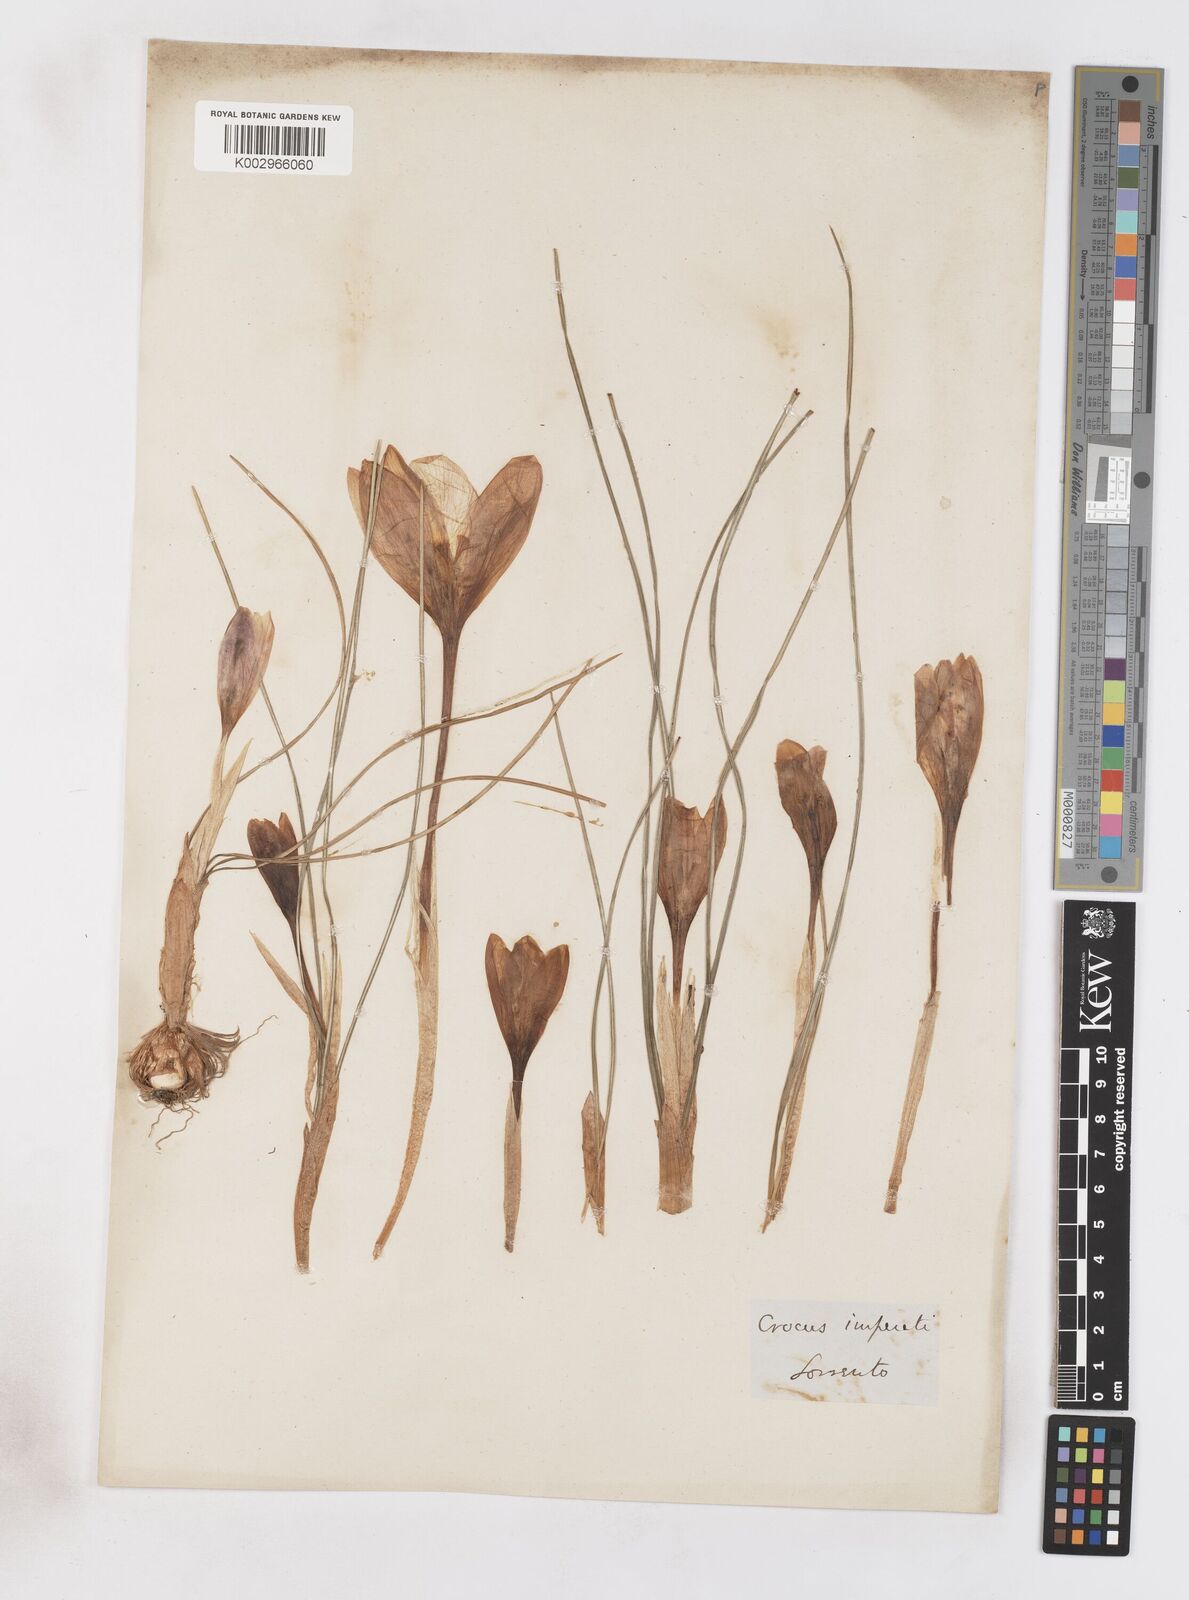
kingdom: Plantae
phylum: Tracheophyta
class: Liliopsida
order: Asparagales
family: Iridaceae
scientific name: Iridaceae
